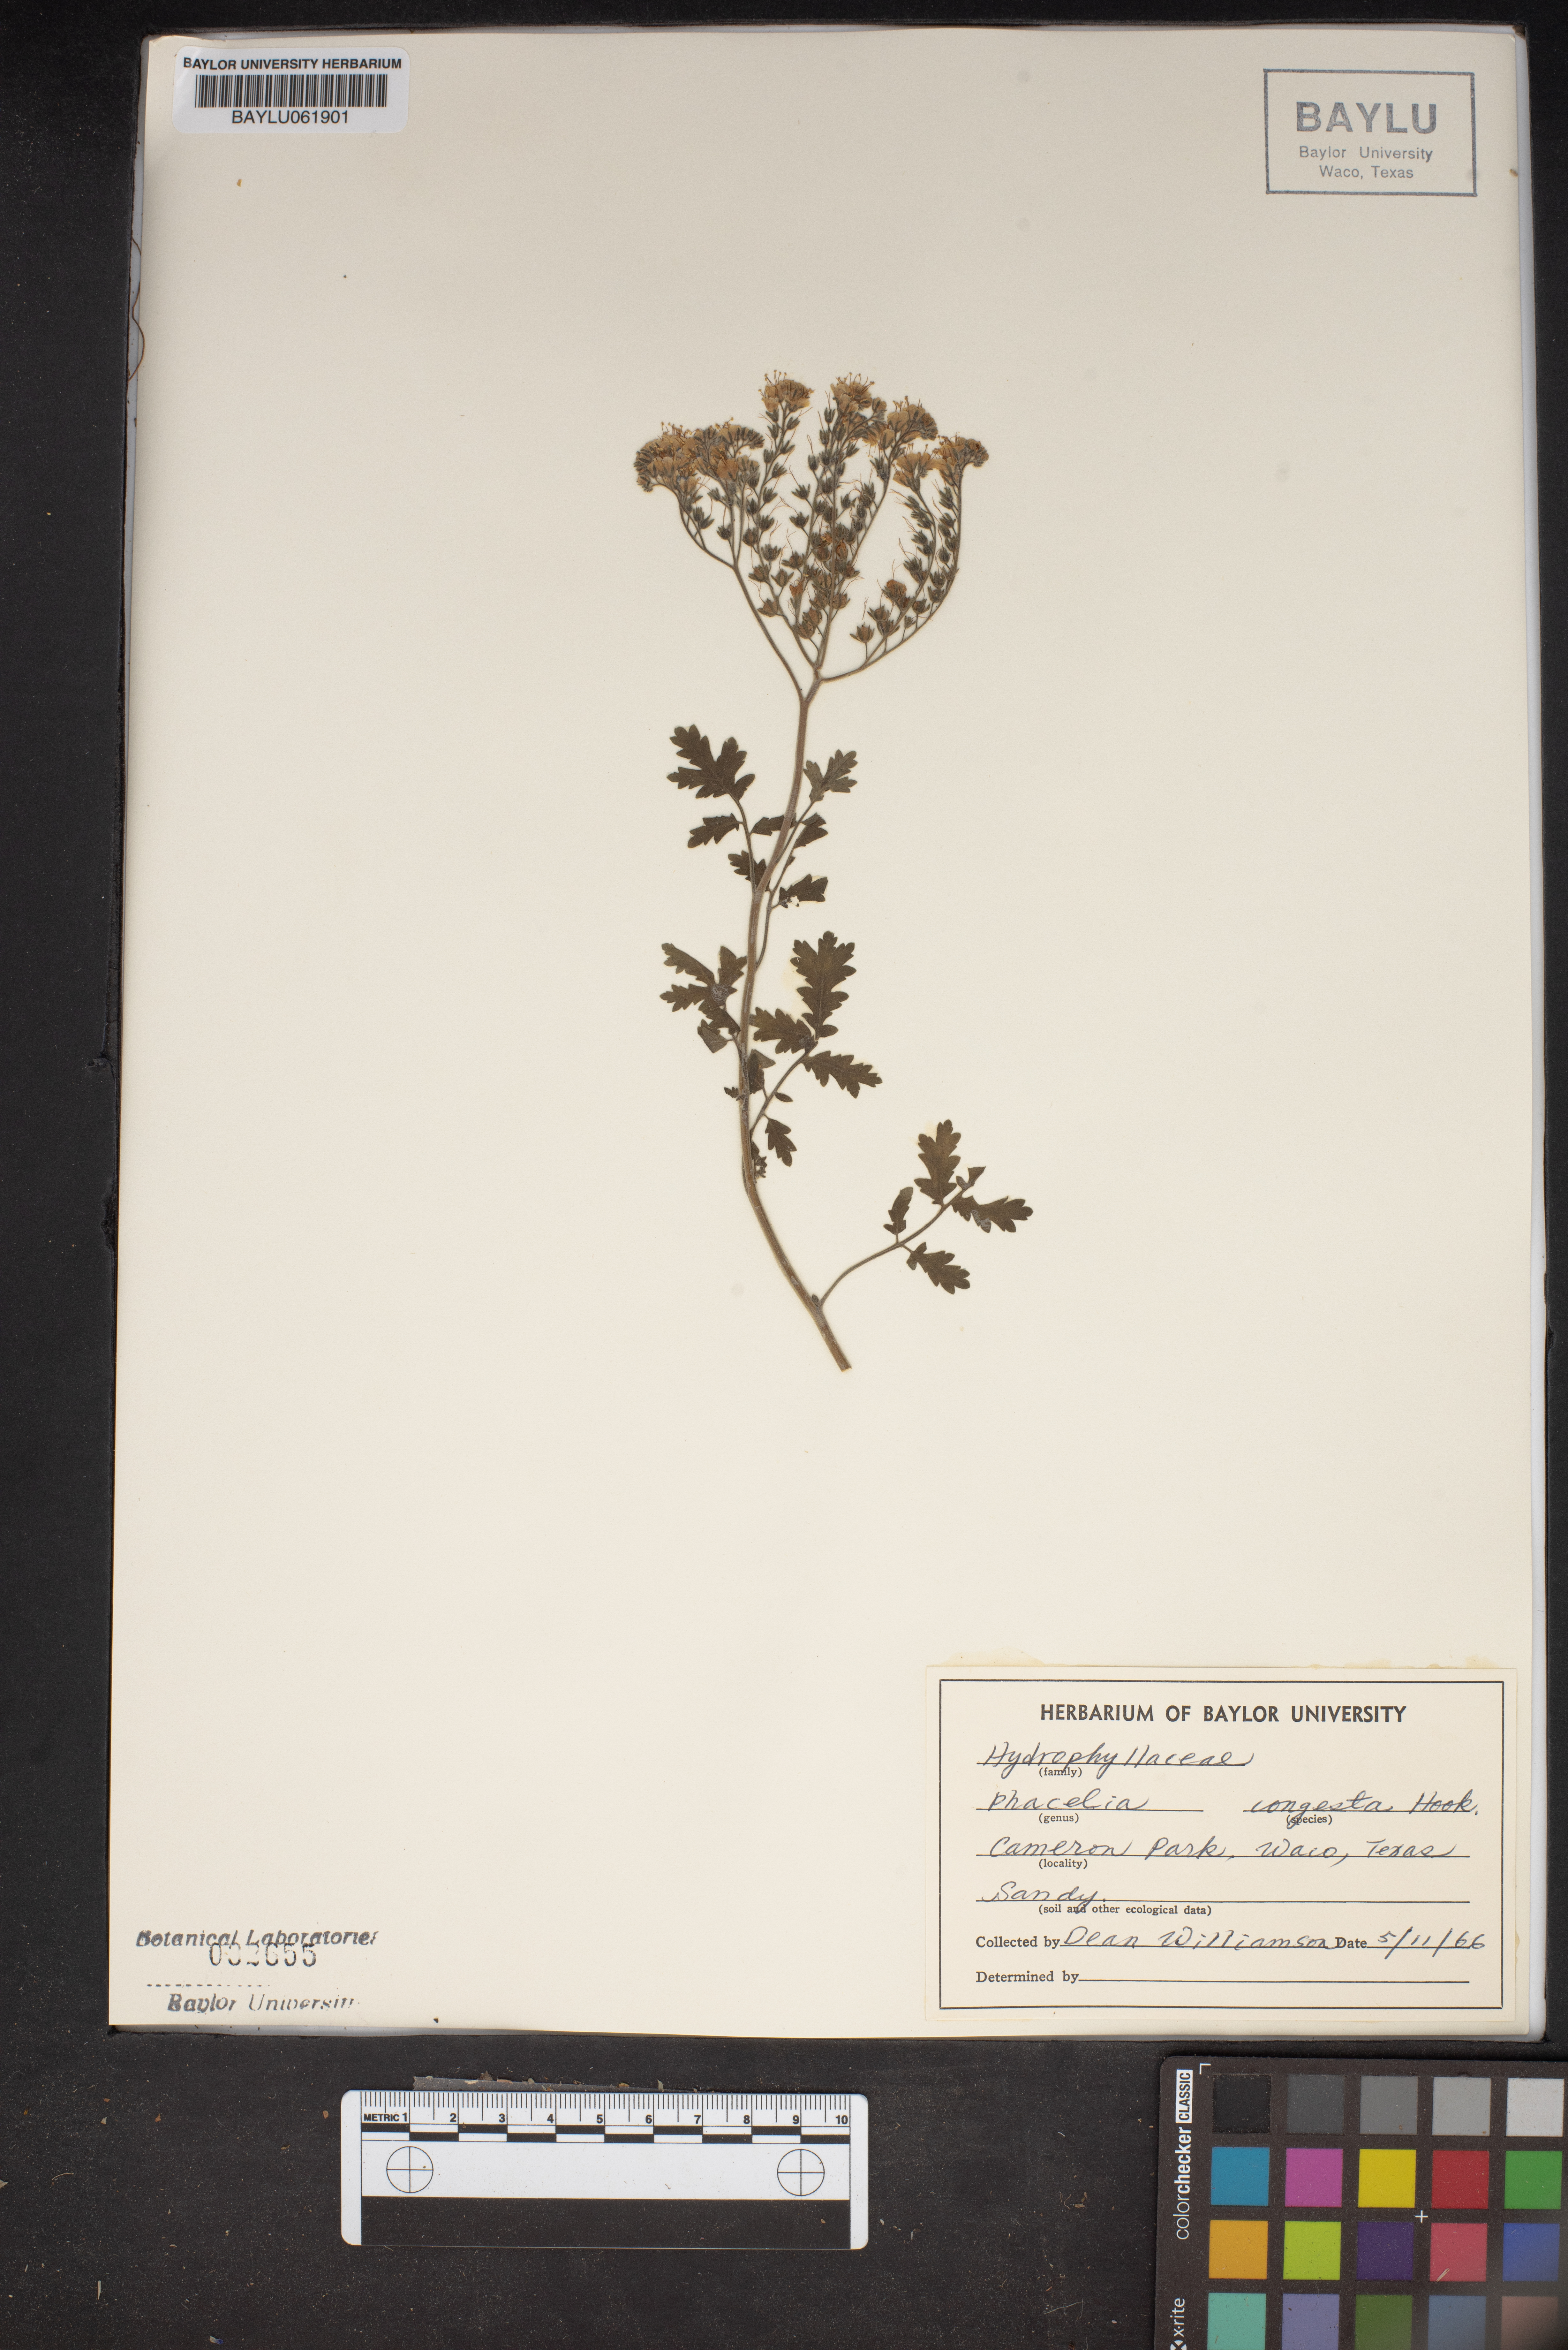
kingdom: Plantae
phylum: Tracheophyta
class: Magnoliopsida
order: Boraginales
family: Hydrophyllaceae
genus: Phacelia
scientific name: Phacelia congesta
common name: Blue curls
